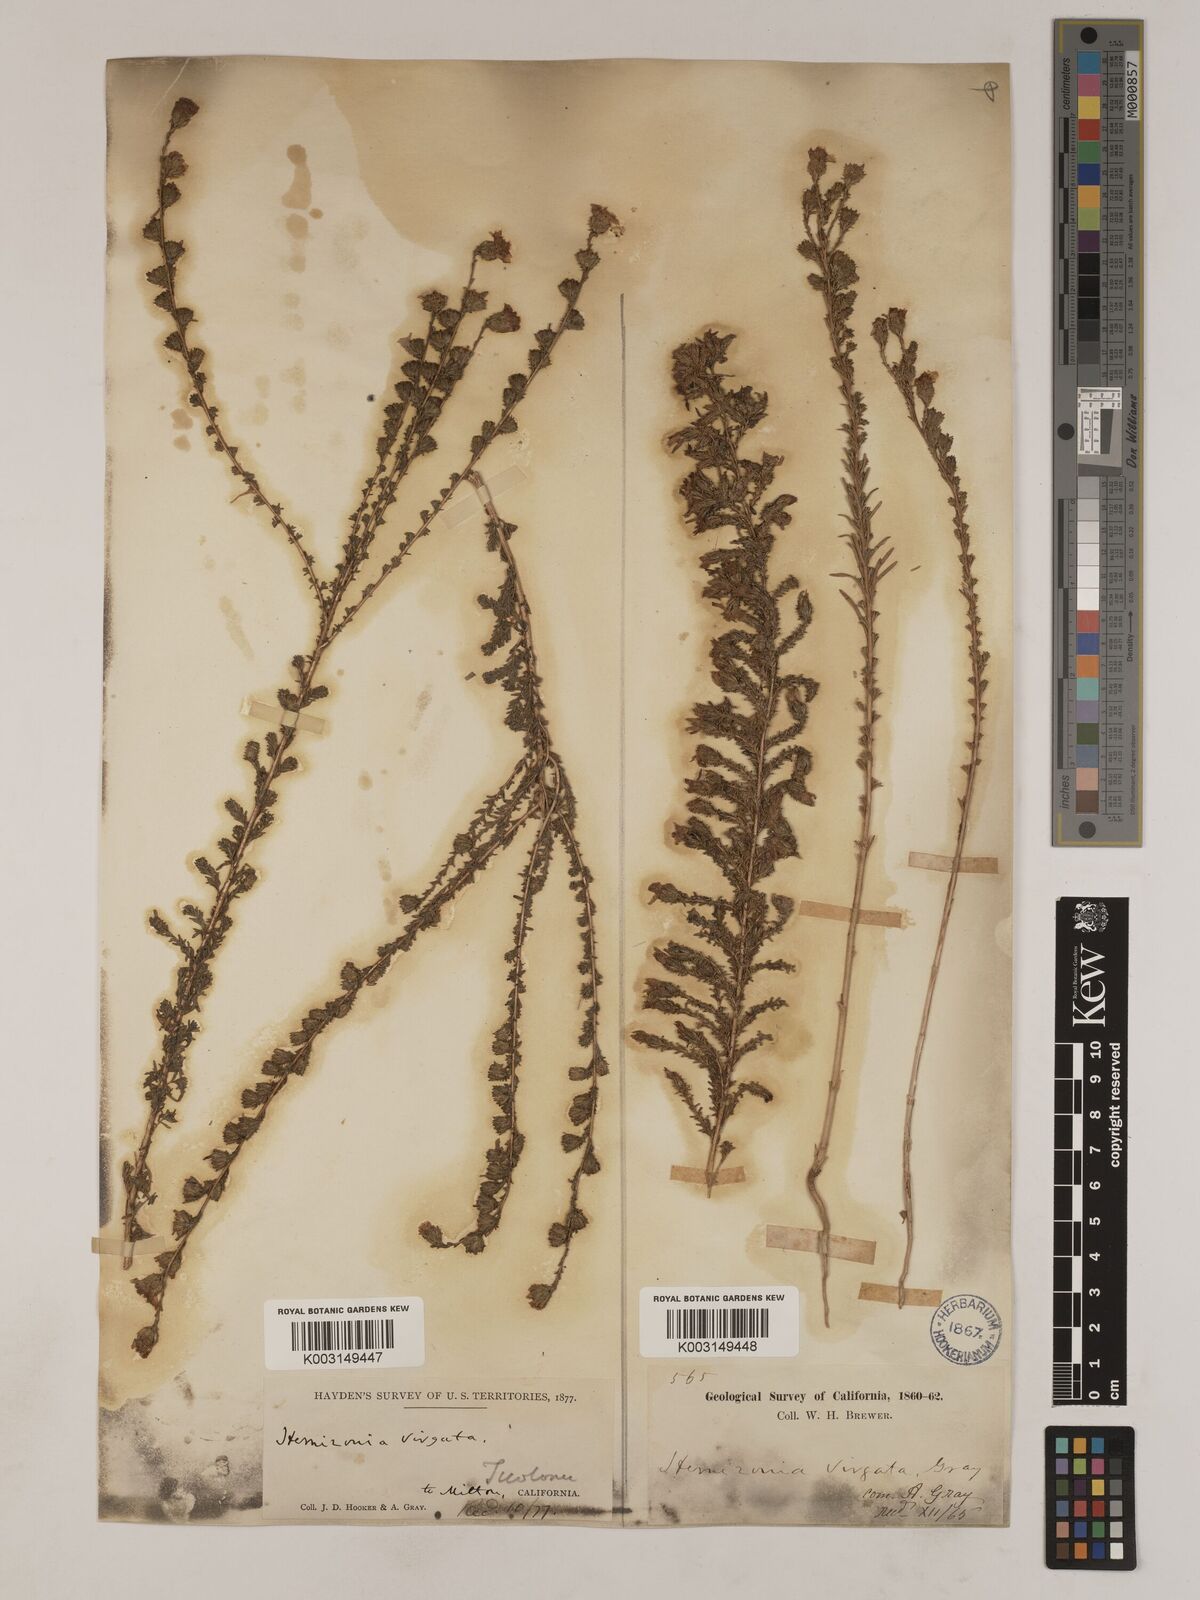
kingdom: Plantae
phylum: Tracheophyta
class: Magnoliopsida
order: Asterales
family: Asteraceae
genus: Holocarpha
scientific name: Holocarpha virgata
